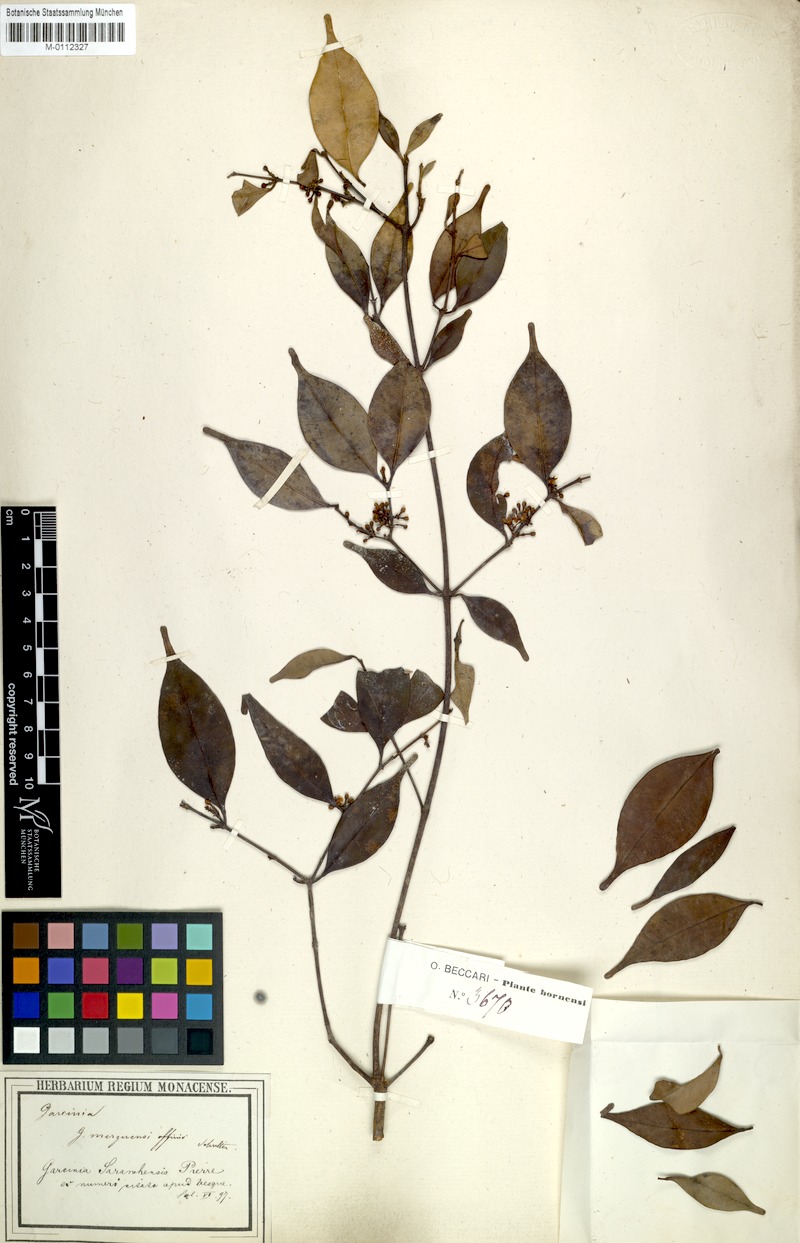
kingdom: Plantae
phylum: Tracheophyta
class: Magnoliopsida
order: Malpighiales
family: Clusiaceae
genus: Garcinia
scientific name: Garcinia sarawhensis
